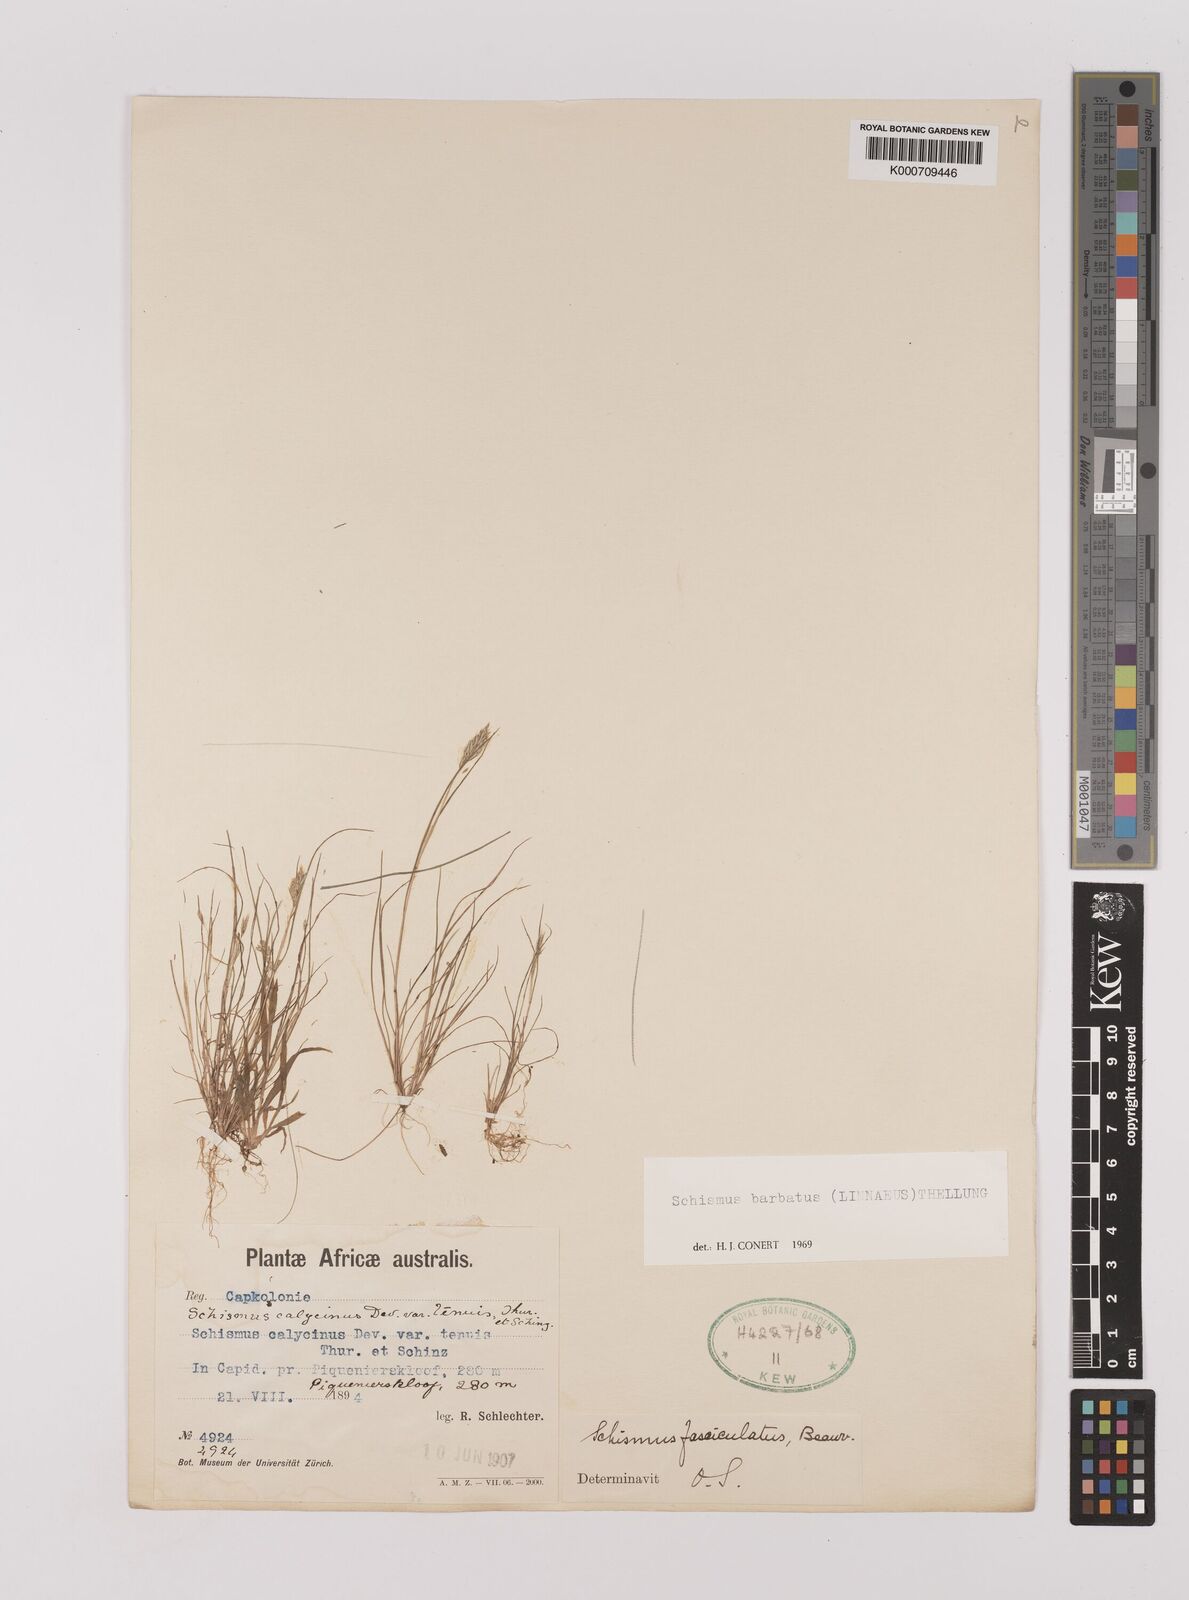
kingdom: Plantae
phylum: Tracheophyta
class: Liliopsida
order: Poales
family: Poaceae
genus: Schismus
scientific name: Schismus barbatus
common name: Kelch-grass
